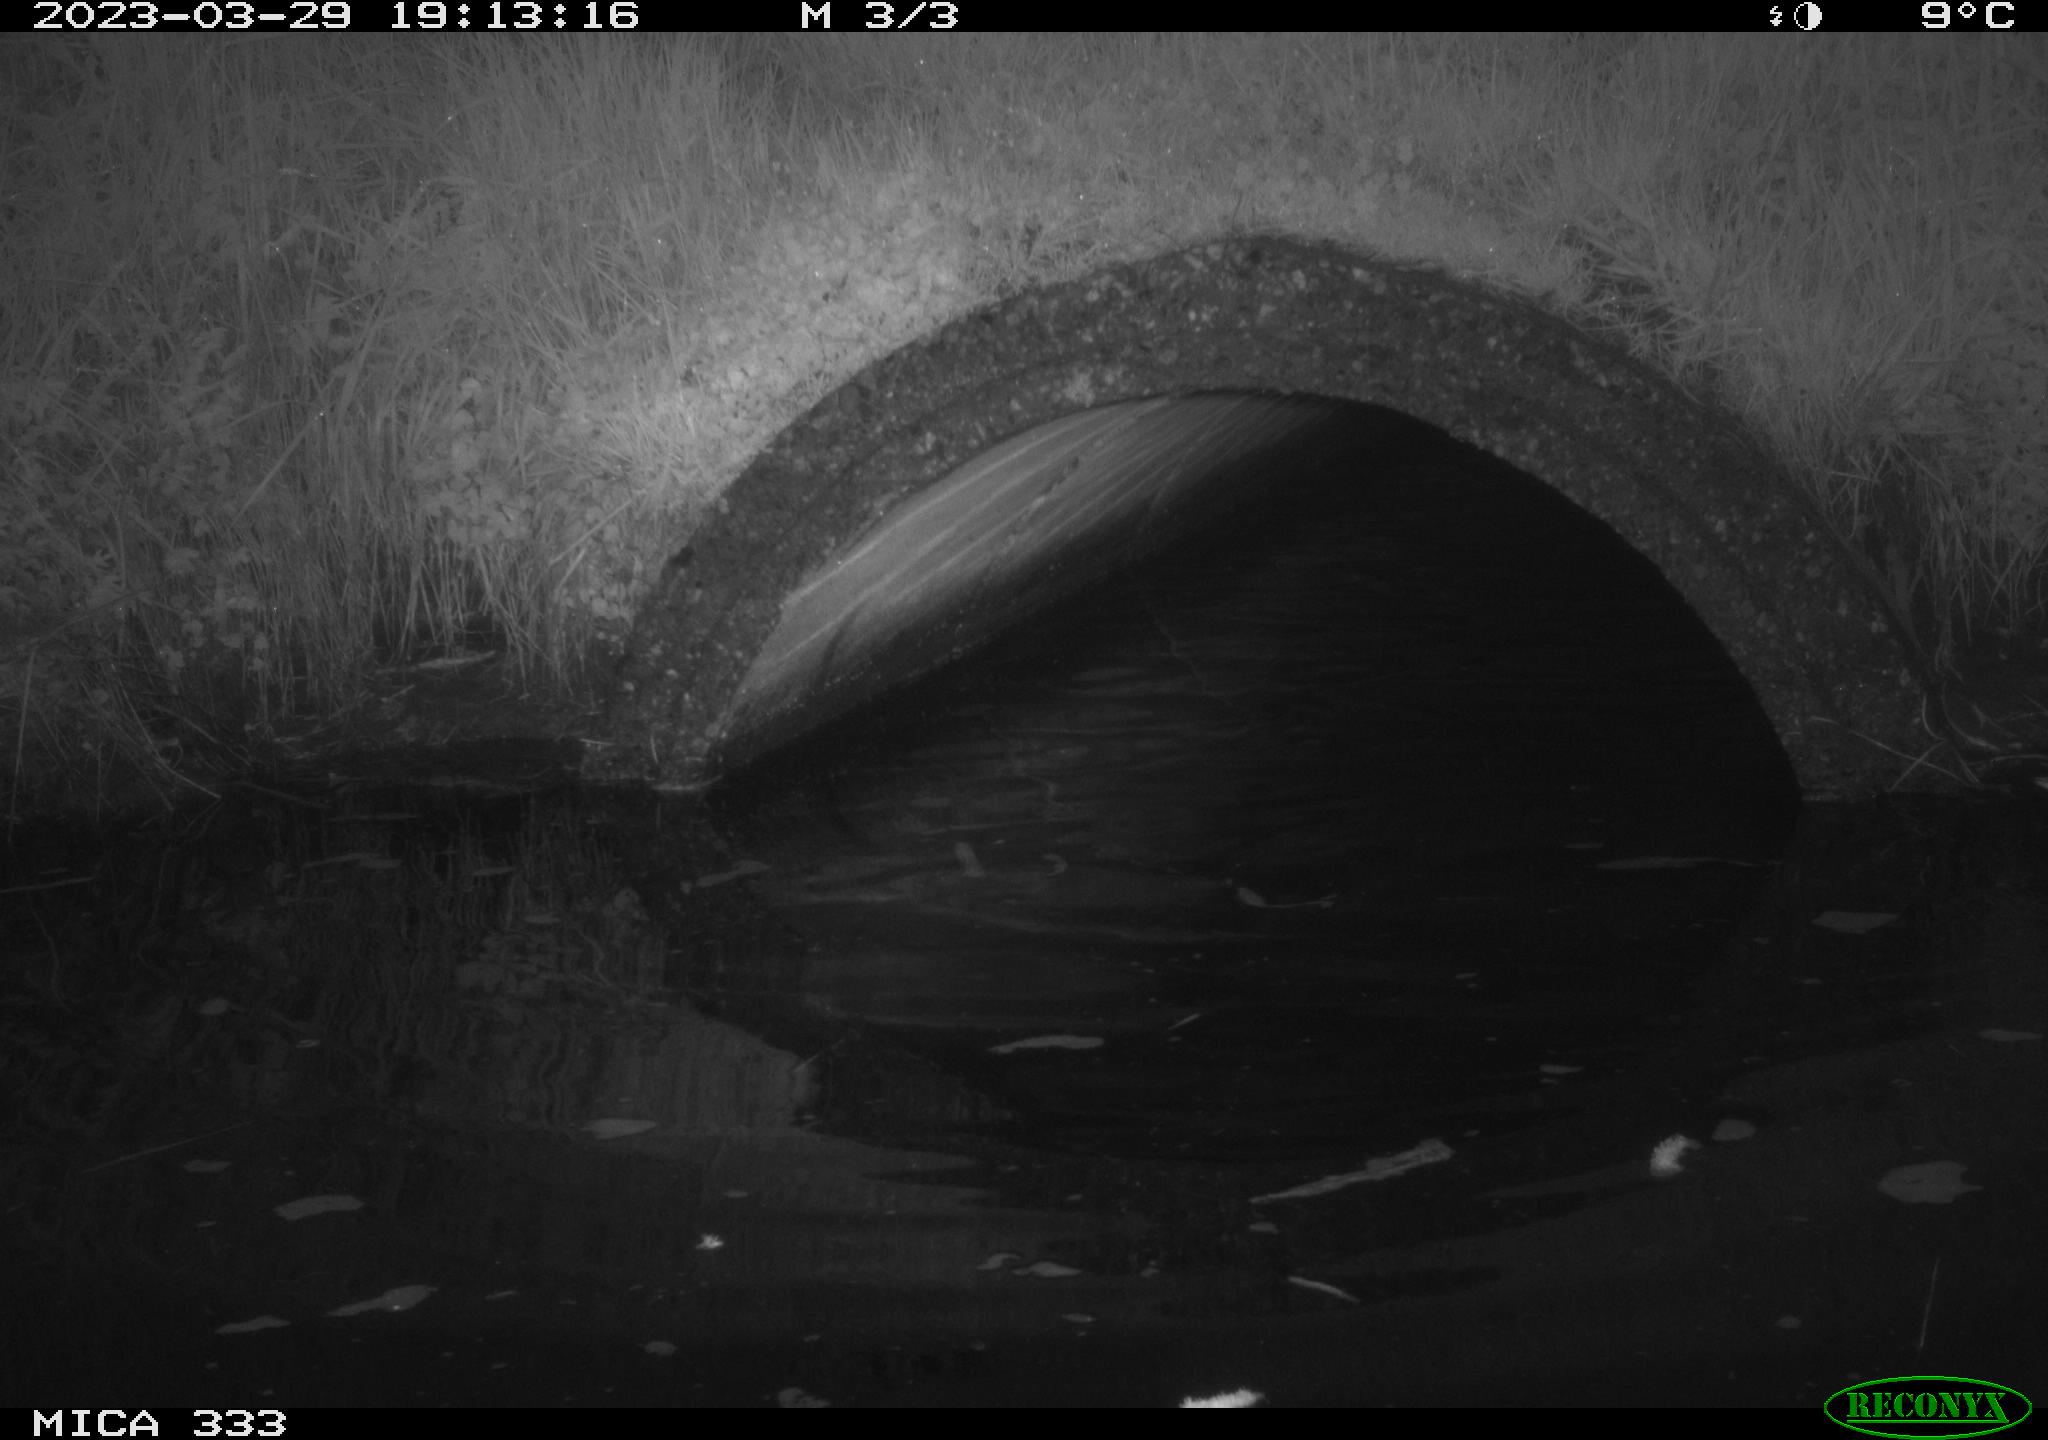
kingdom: Animalia
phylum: Chordata
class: Aves
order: Anseriformes
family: Anatidae
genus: Anas
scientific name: Anas
